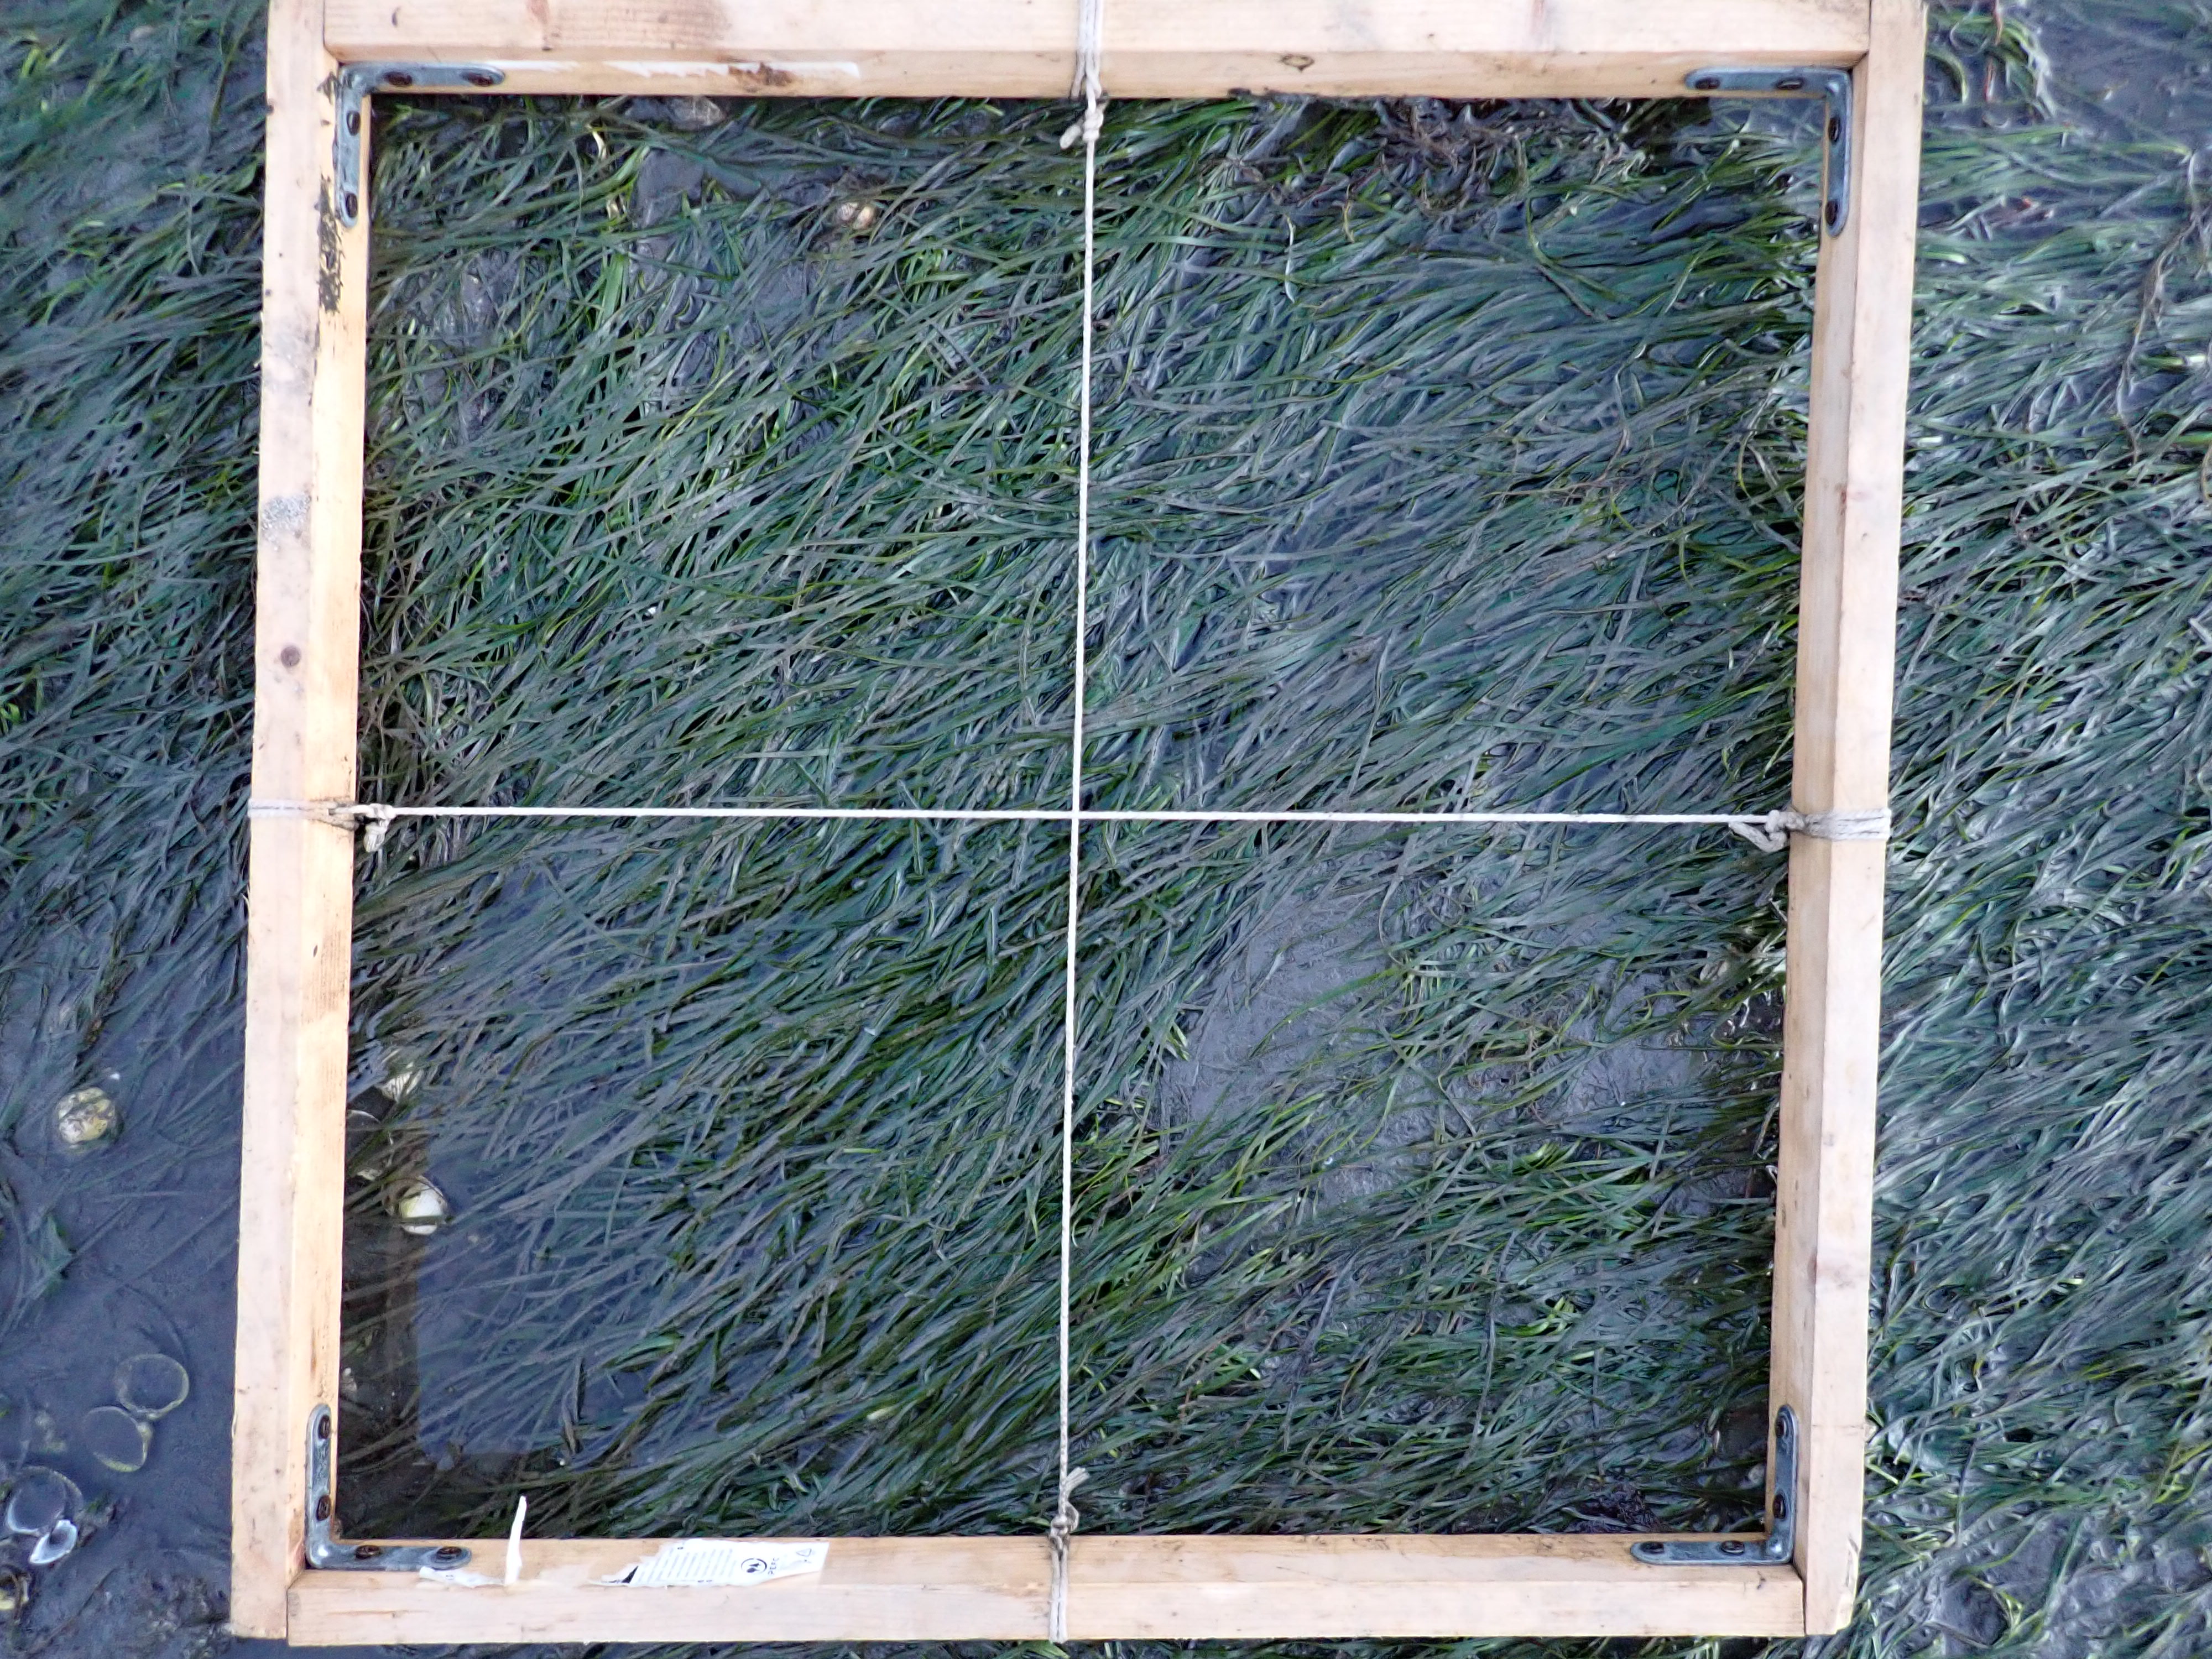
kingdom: Plantae
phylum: Tracheophyta
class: Liliopsida
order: Alismatales
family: Zosteraceae
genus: Zostera
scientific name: Zostera noltii
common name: Dwarf eelgrass
